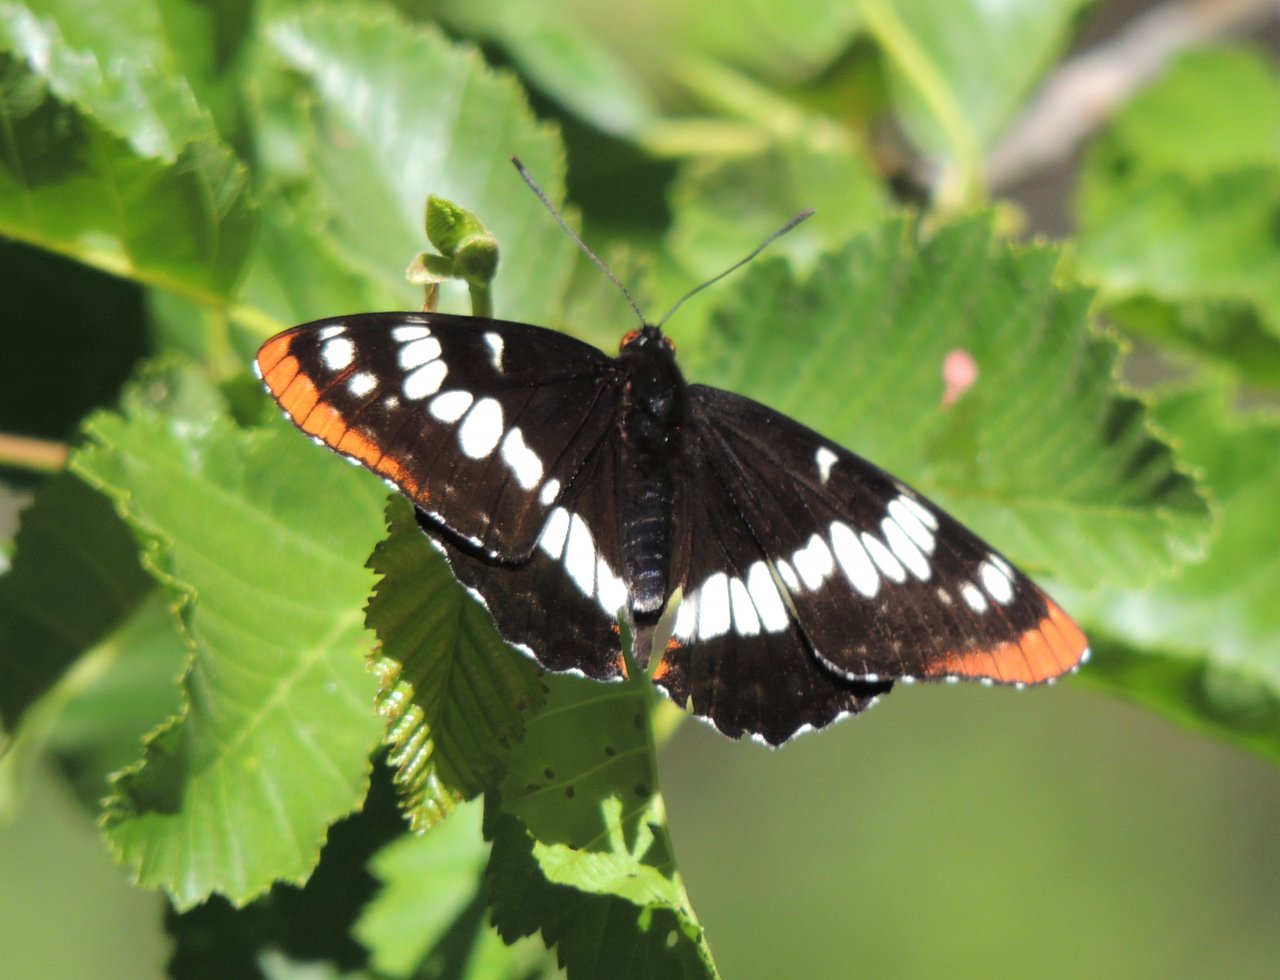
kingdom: Animalia
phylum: Arthropoda
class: Insecta
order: Lepidoptera
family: Nymphalidae
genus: Limenitis
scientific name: Limenitis lorquini
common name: Lorquin's Admiral
